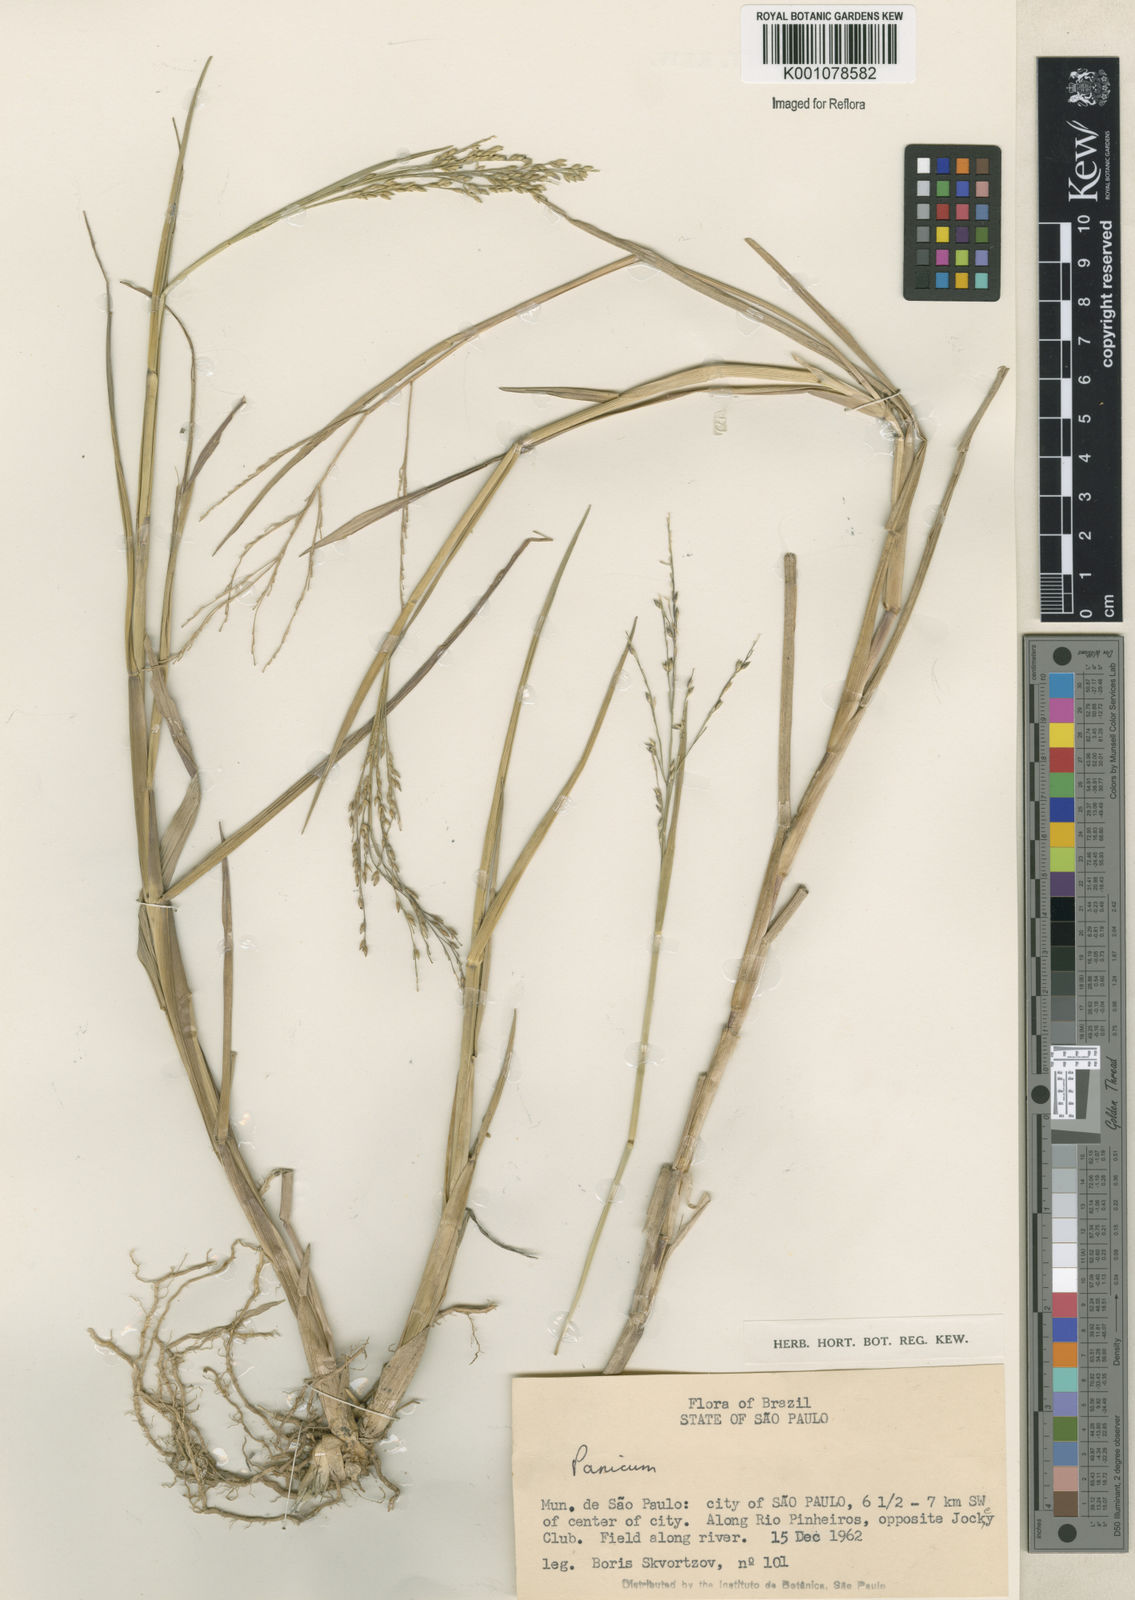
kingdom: Plantae
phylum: Tracheophyta
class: Liliopsida
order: Poales
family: Poaceae
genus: Panicum
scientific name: Panicum dichotomiflorum
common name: Autumn millet
